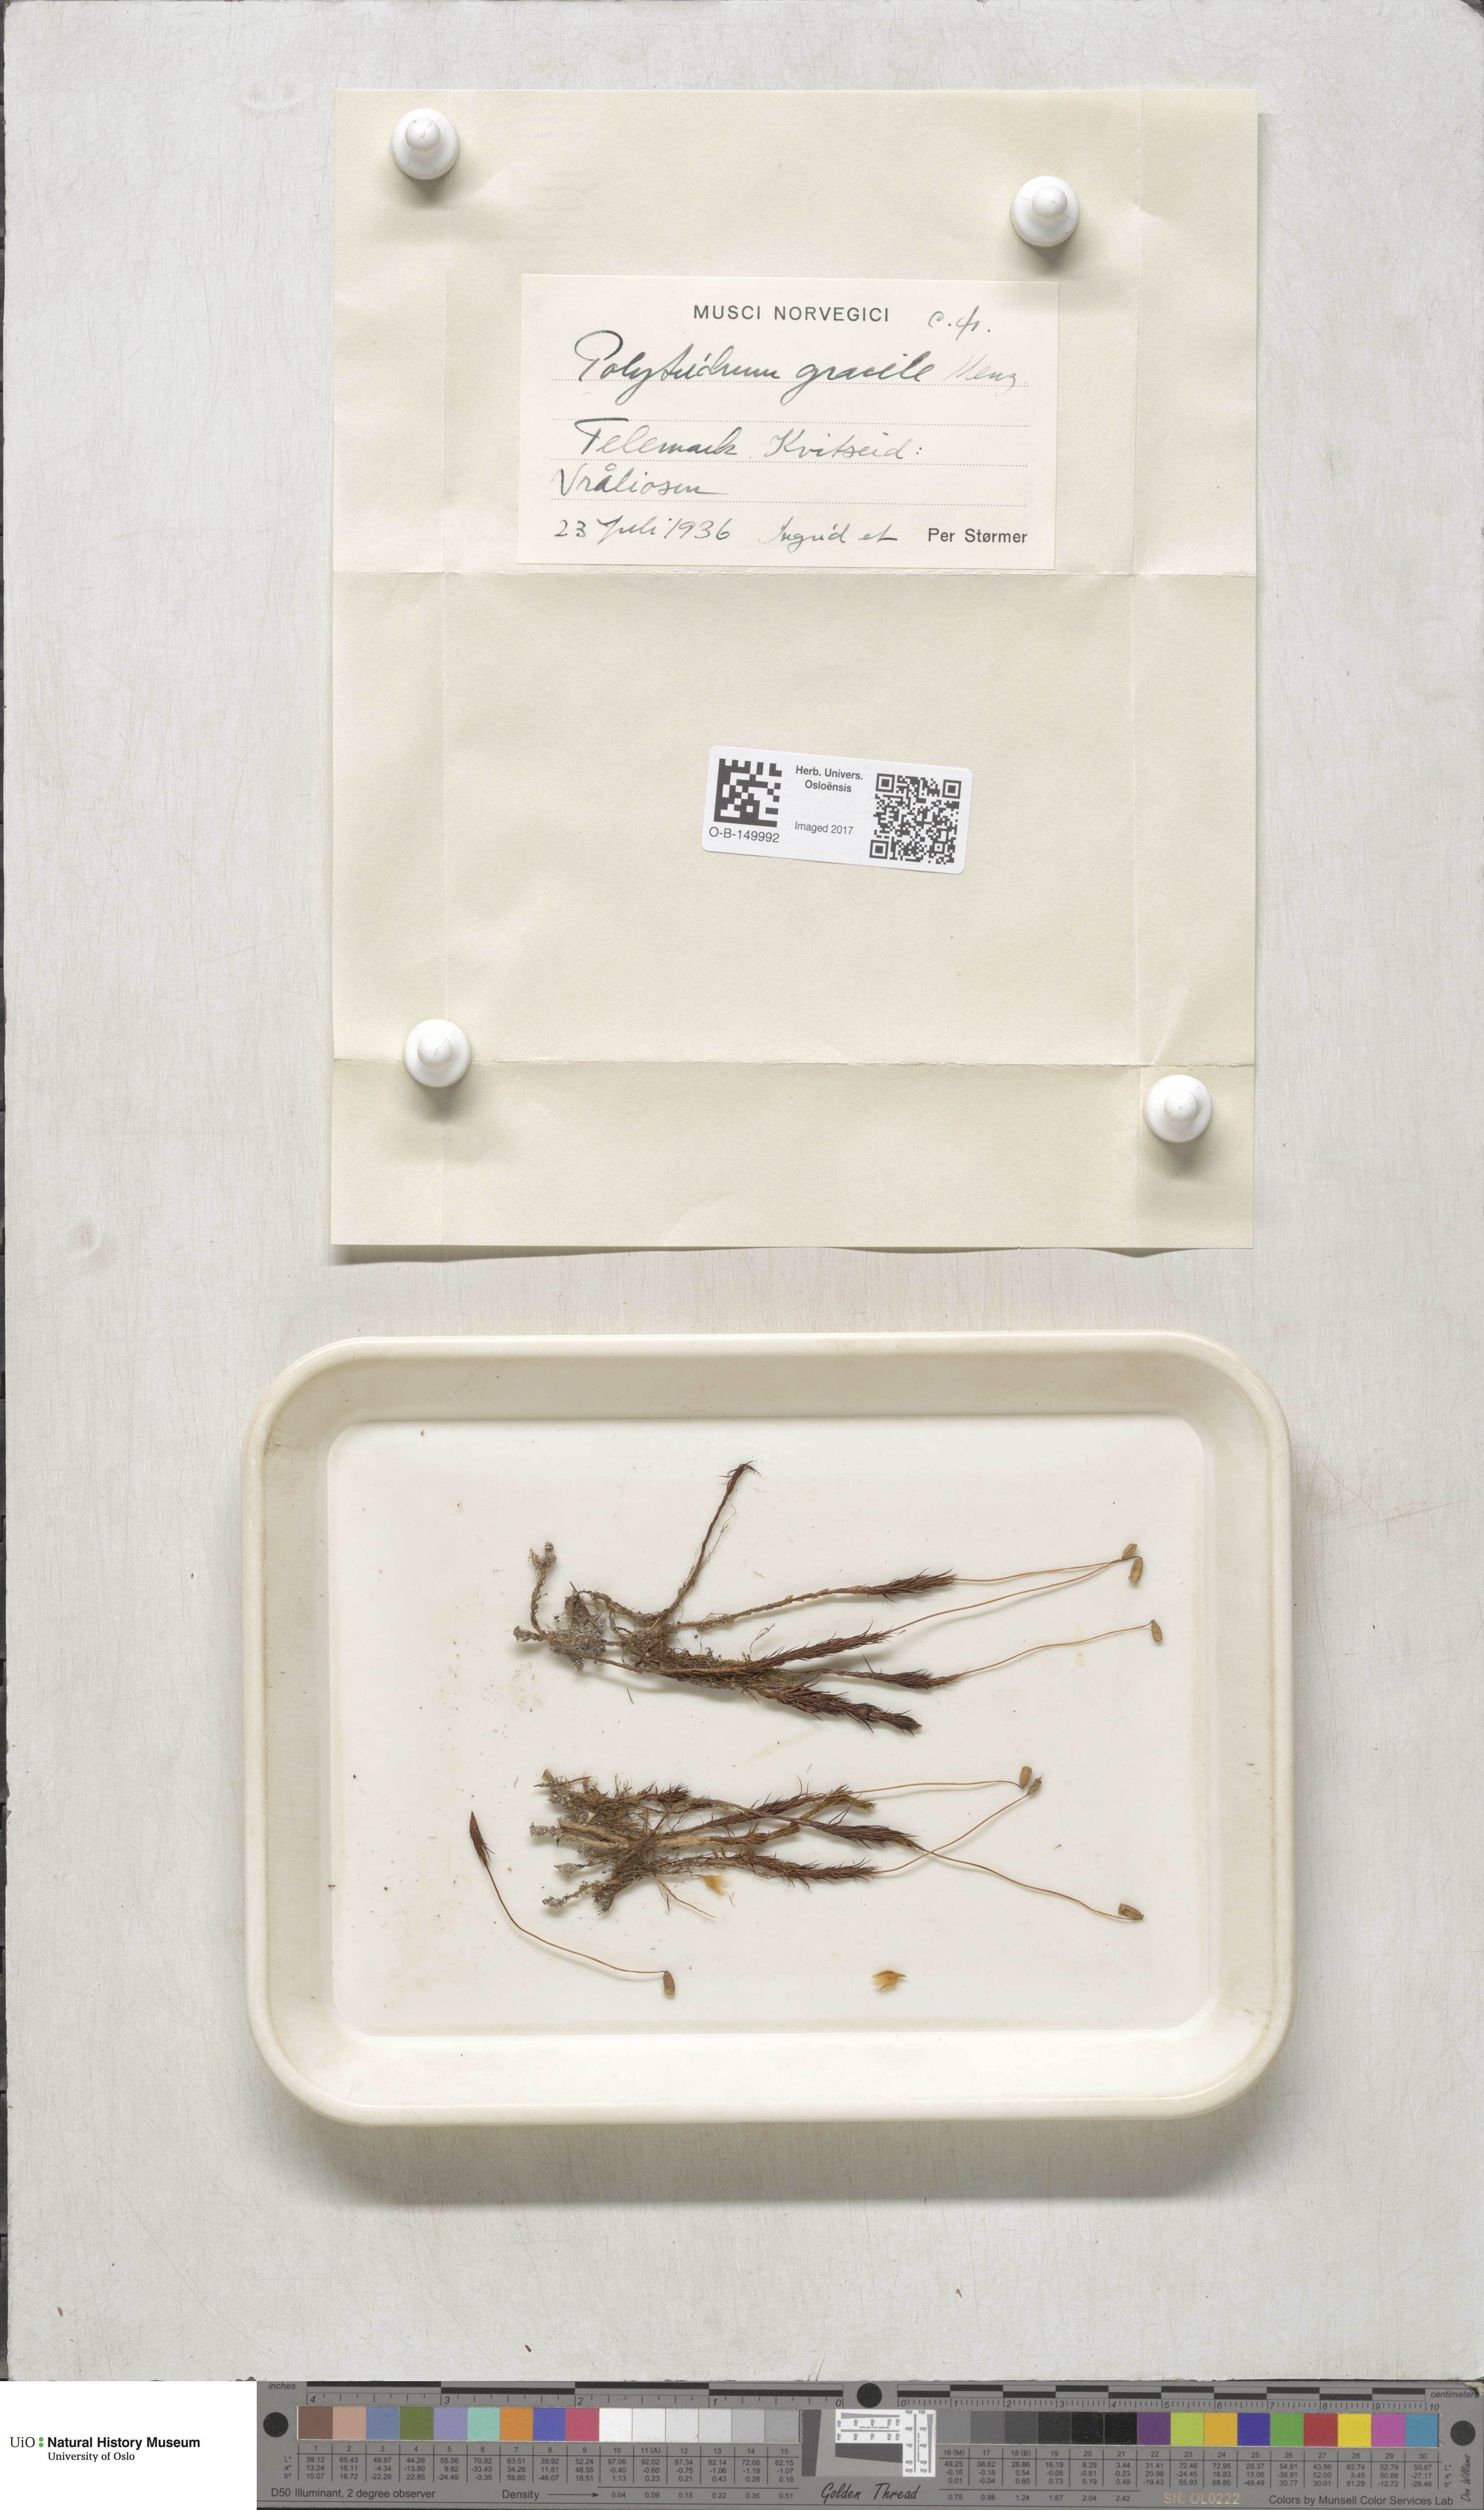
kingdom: Plantae
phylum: Bryophyta
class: Polytrichopsida
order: Polytrichales
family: Polytrichaceae
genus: Polytrichum
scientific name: Polytrichum longisetum
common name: Long-stalked haircap moss
